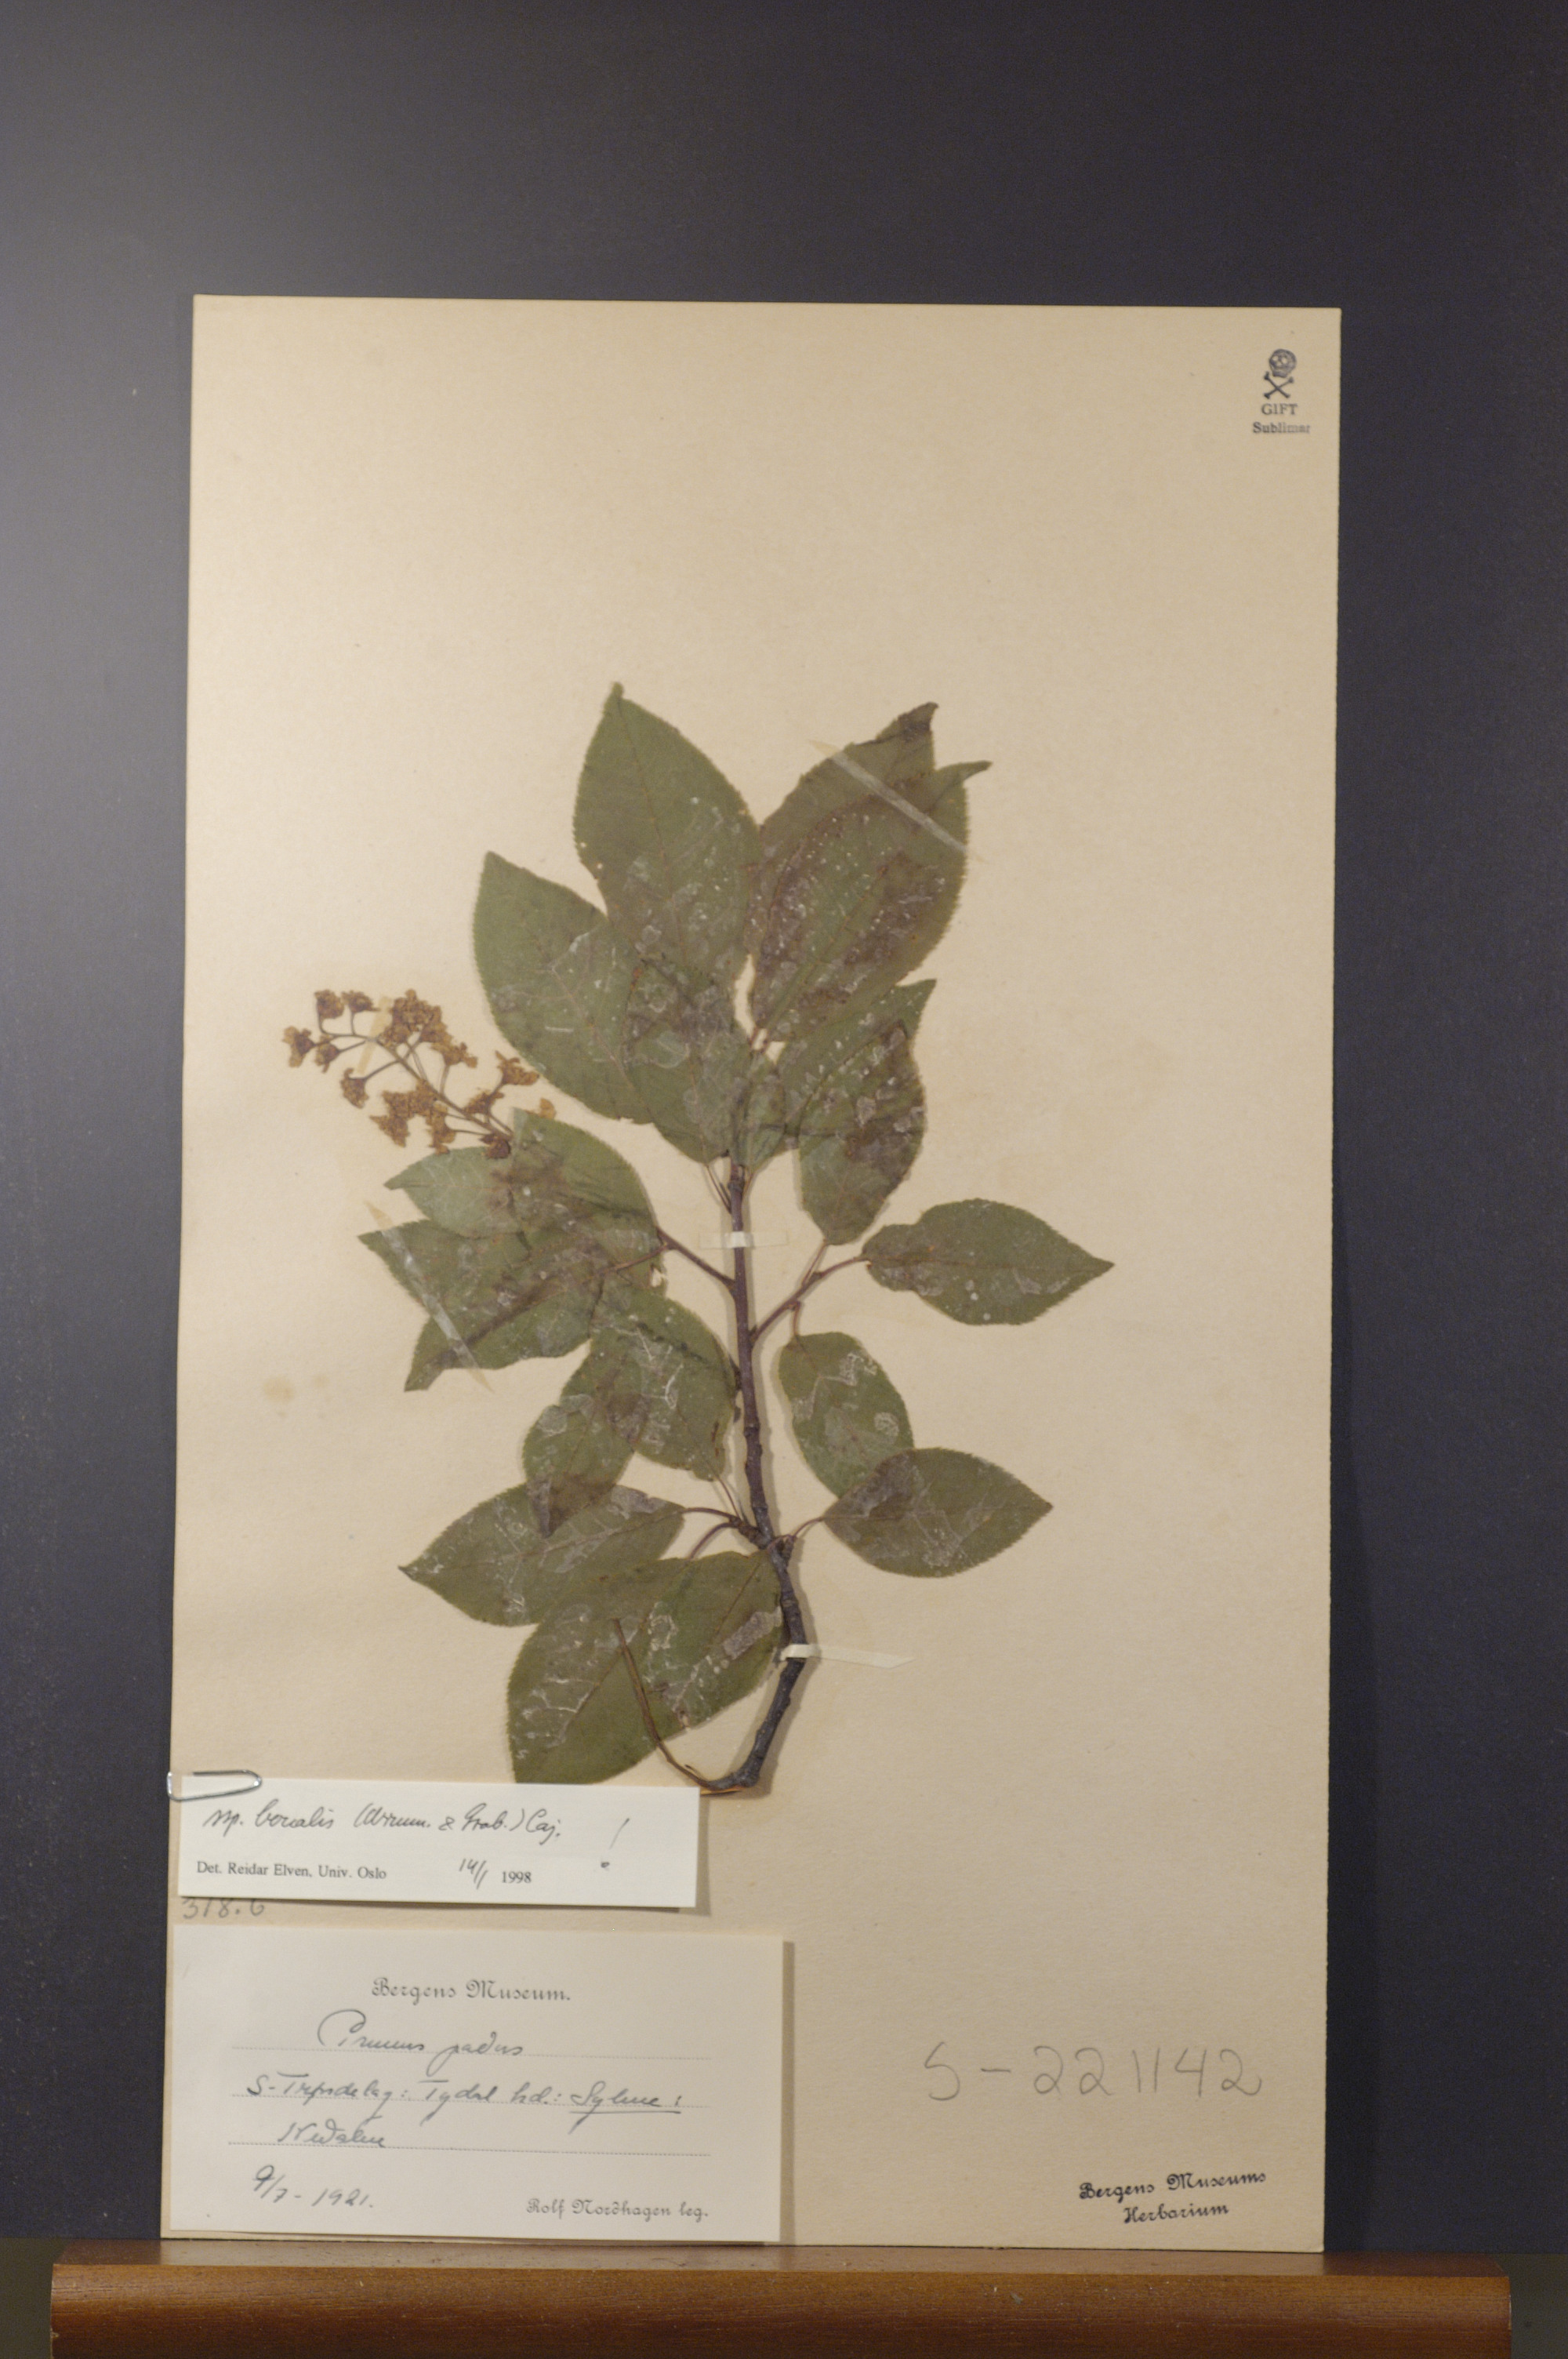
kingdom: Plantae
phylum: Tracheophyta
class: Magnoliopsida
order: Rosales
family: Rosaceae
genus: Prunus
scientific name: Prunus padus
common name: Bird cherry
